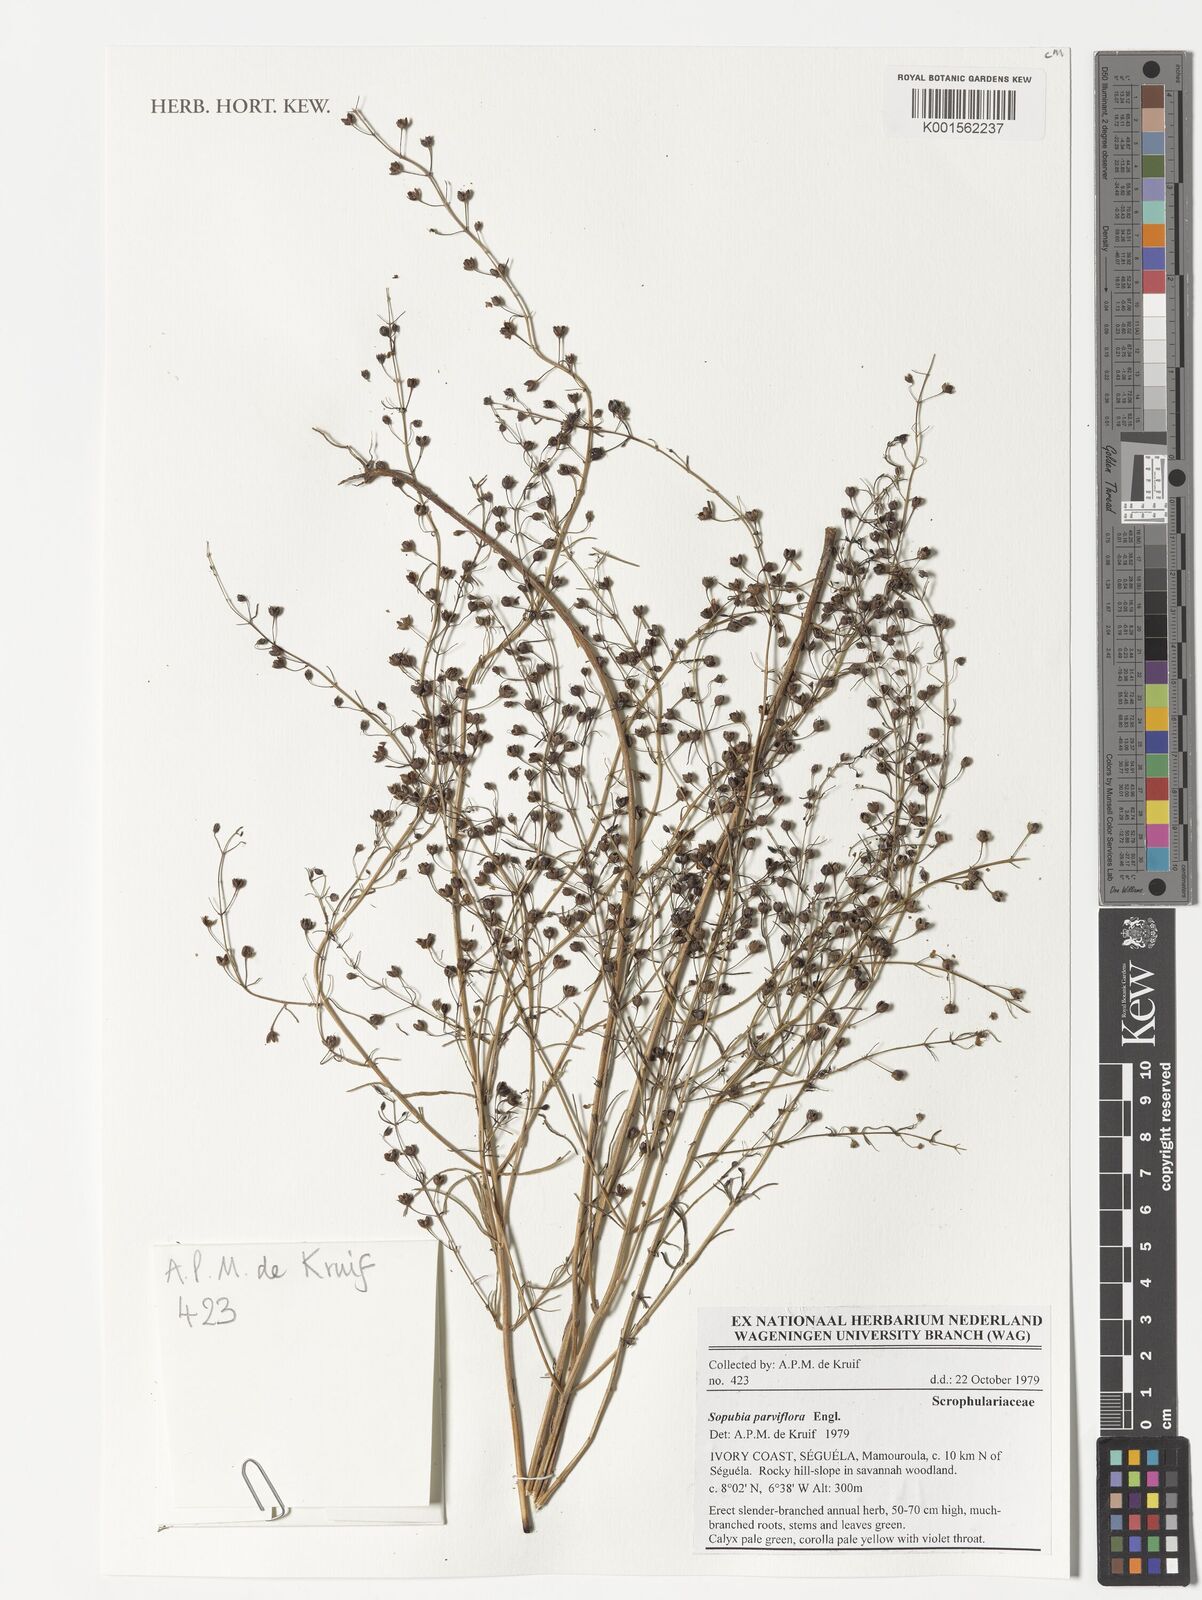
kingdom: Plantae
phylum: Tracheophyta
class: Magnoliopsida
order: Lamiales
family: Orobanchaceae
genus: Sopubia
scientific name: Sopubia parviflora
